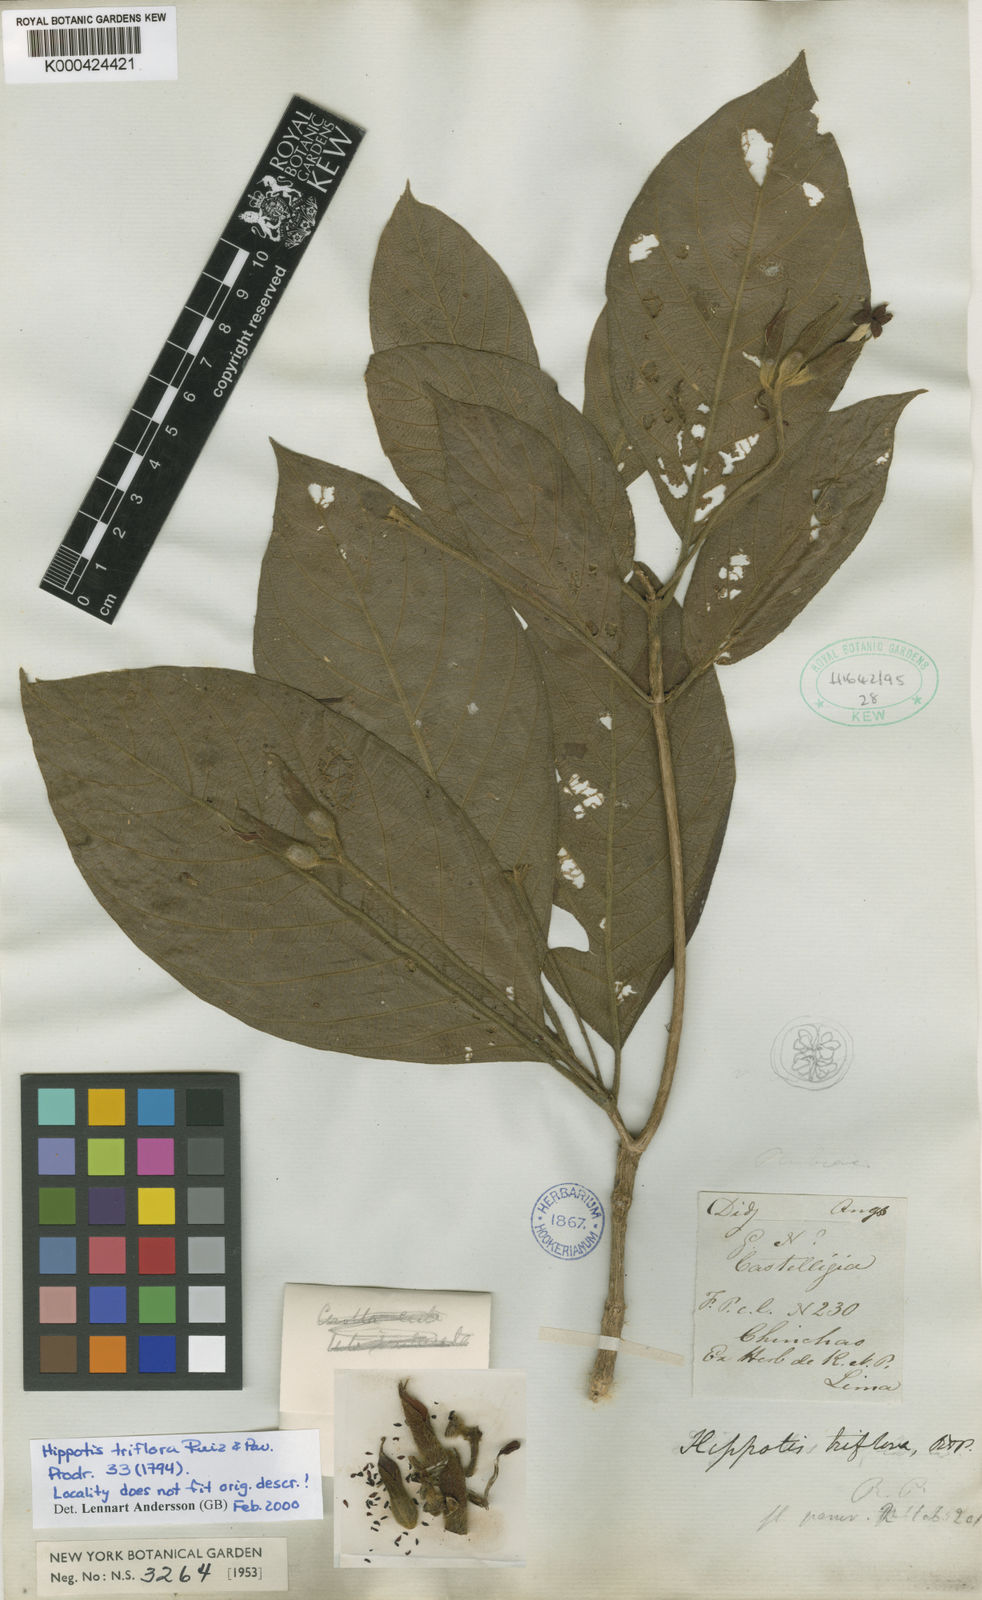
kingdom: Plantae
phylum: Tracheophyta
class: Magnoliopsida
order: Gentianales
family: Rubiaceae
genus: Hippotis
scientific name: Hippotis triflora
